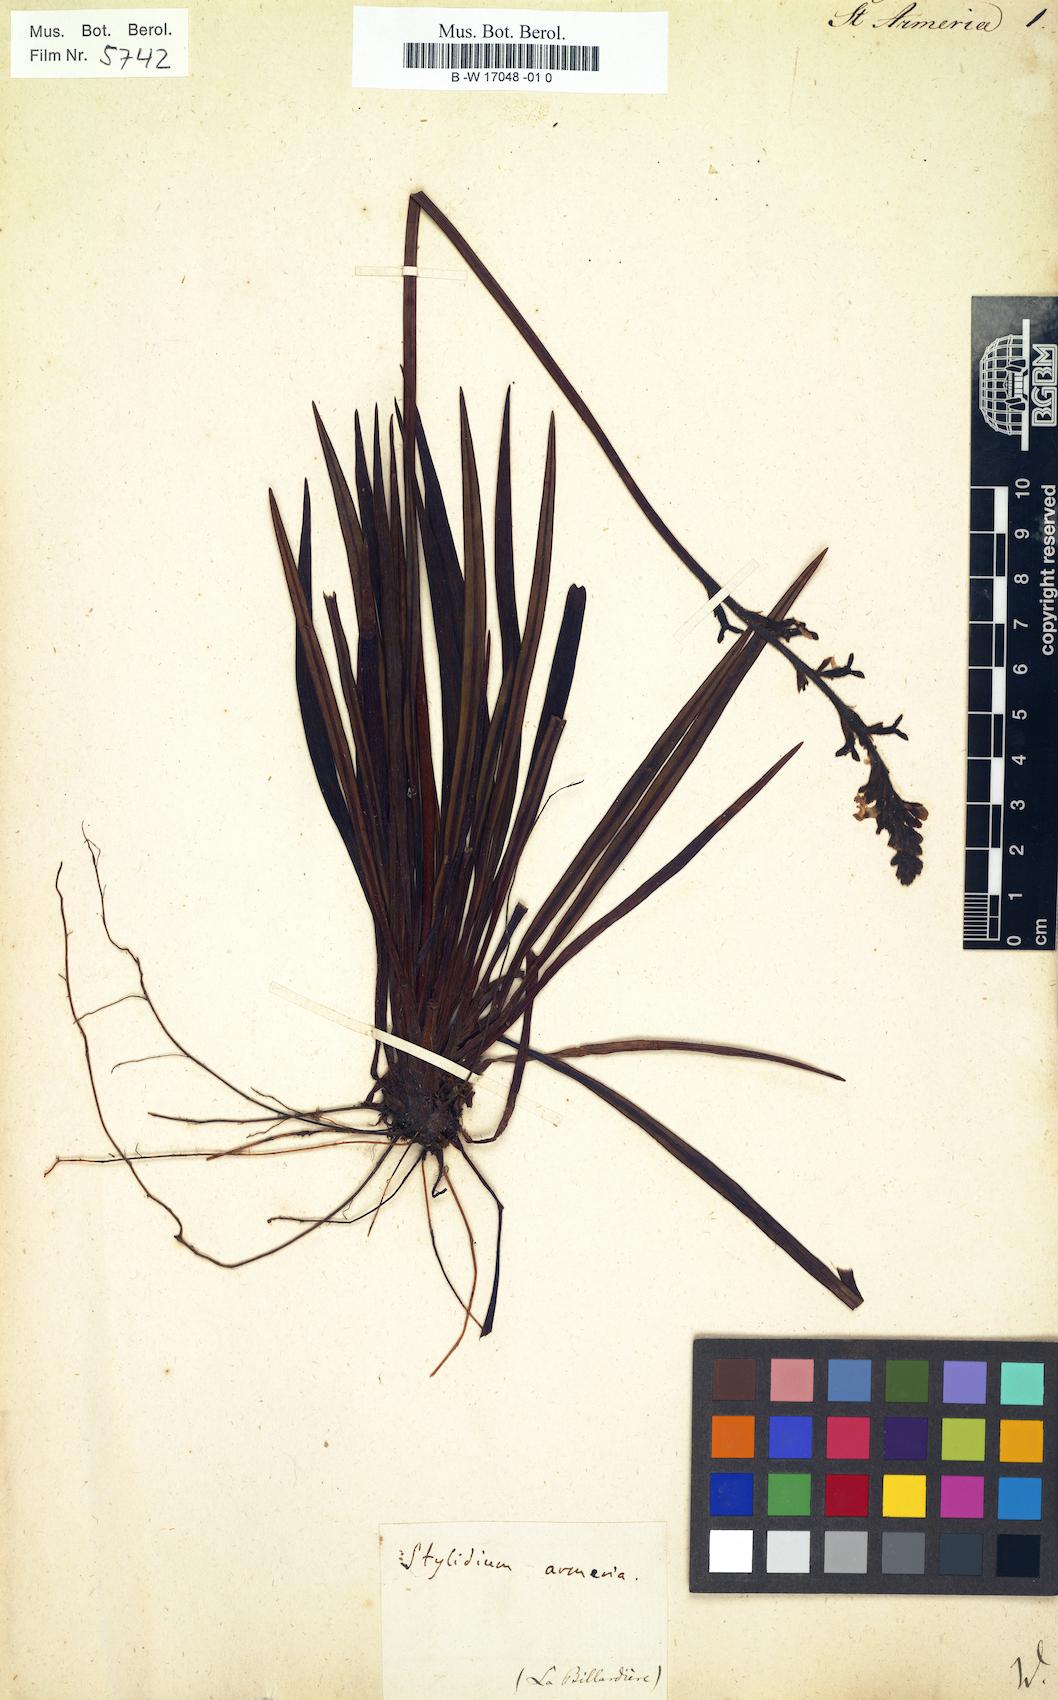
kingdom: Plantae
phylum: Tracheophyta
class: Magnoliopsida
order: Asterales
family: Stylidiaceae
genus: Stylidium
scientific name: Stylidium armeria
